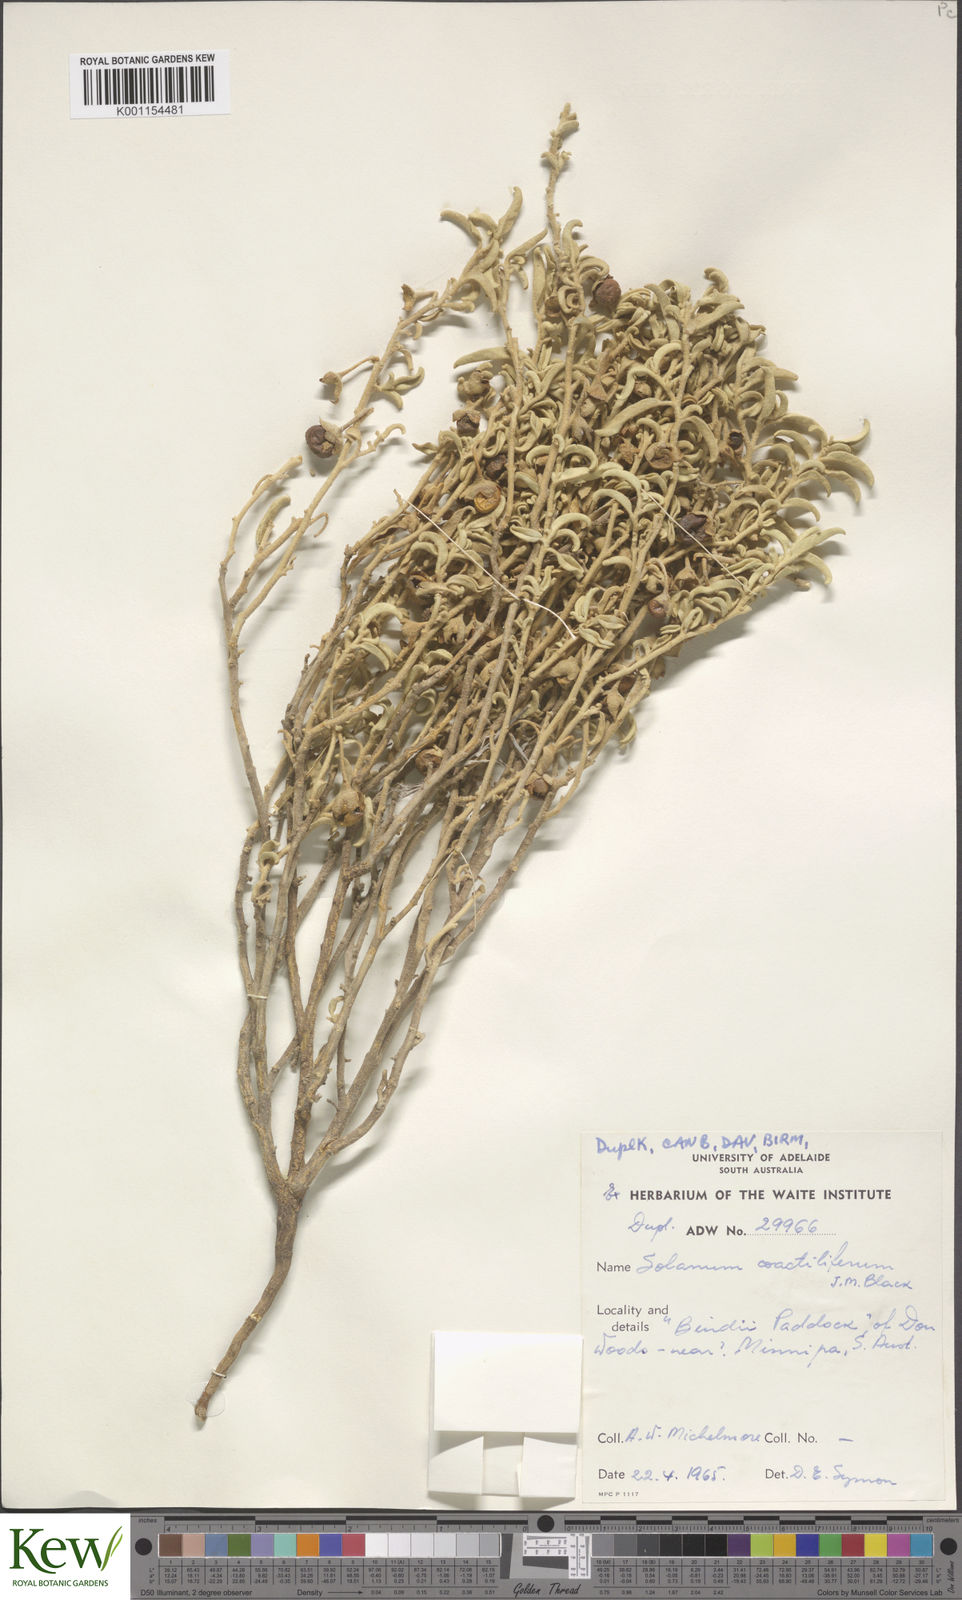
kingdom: Plantae
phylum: Tracheophyta
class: Magnoliopsida
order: Solanales
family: Solanaceae
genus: Solanum
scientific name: Solanum coactiliferum
